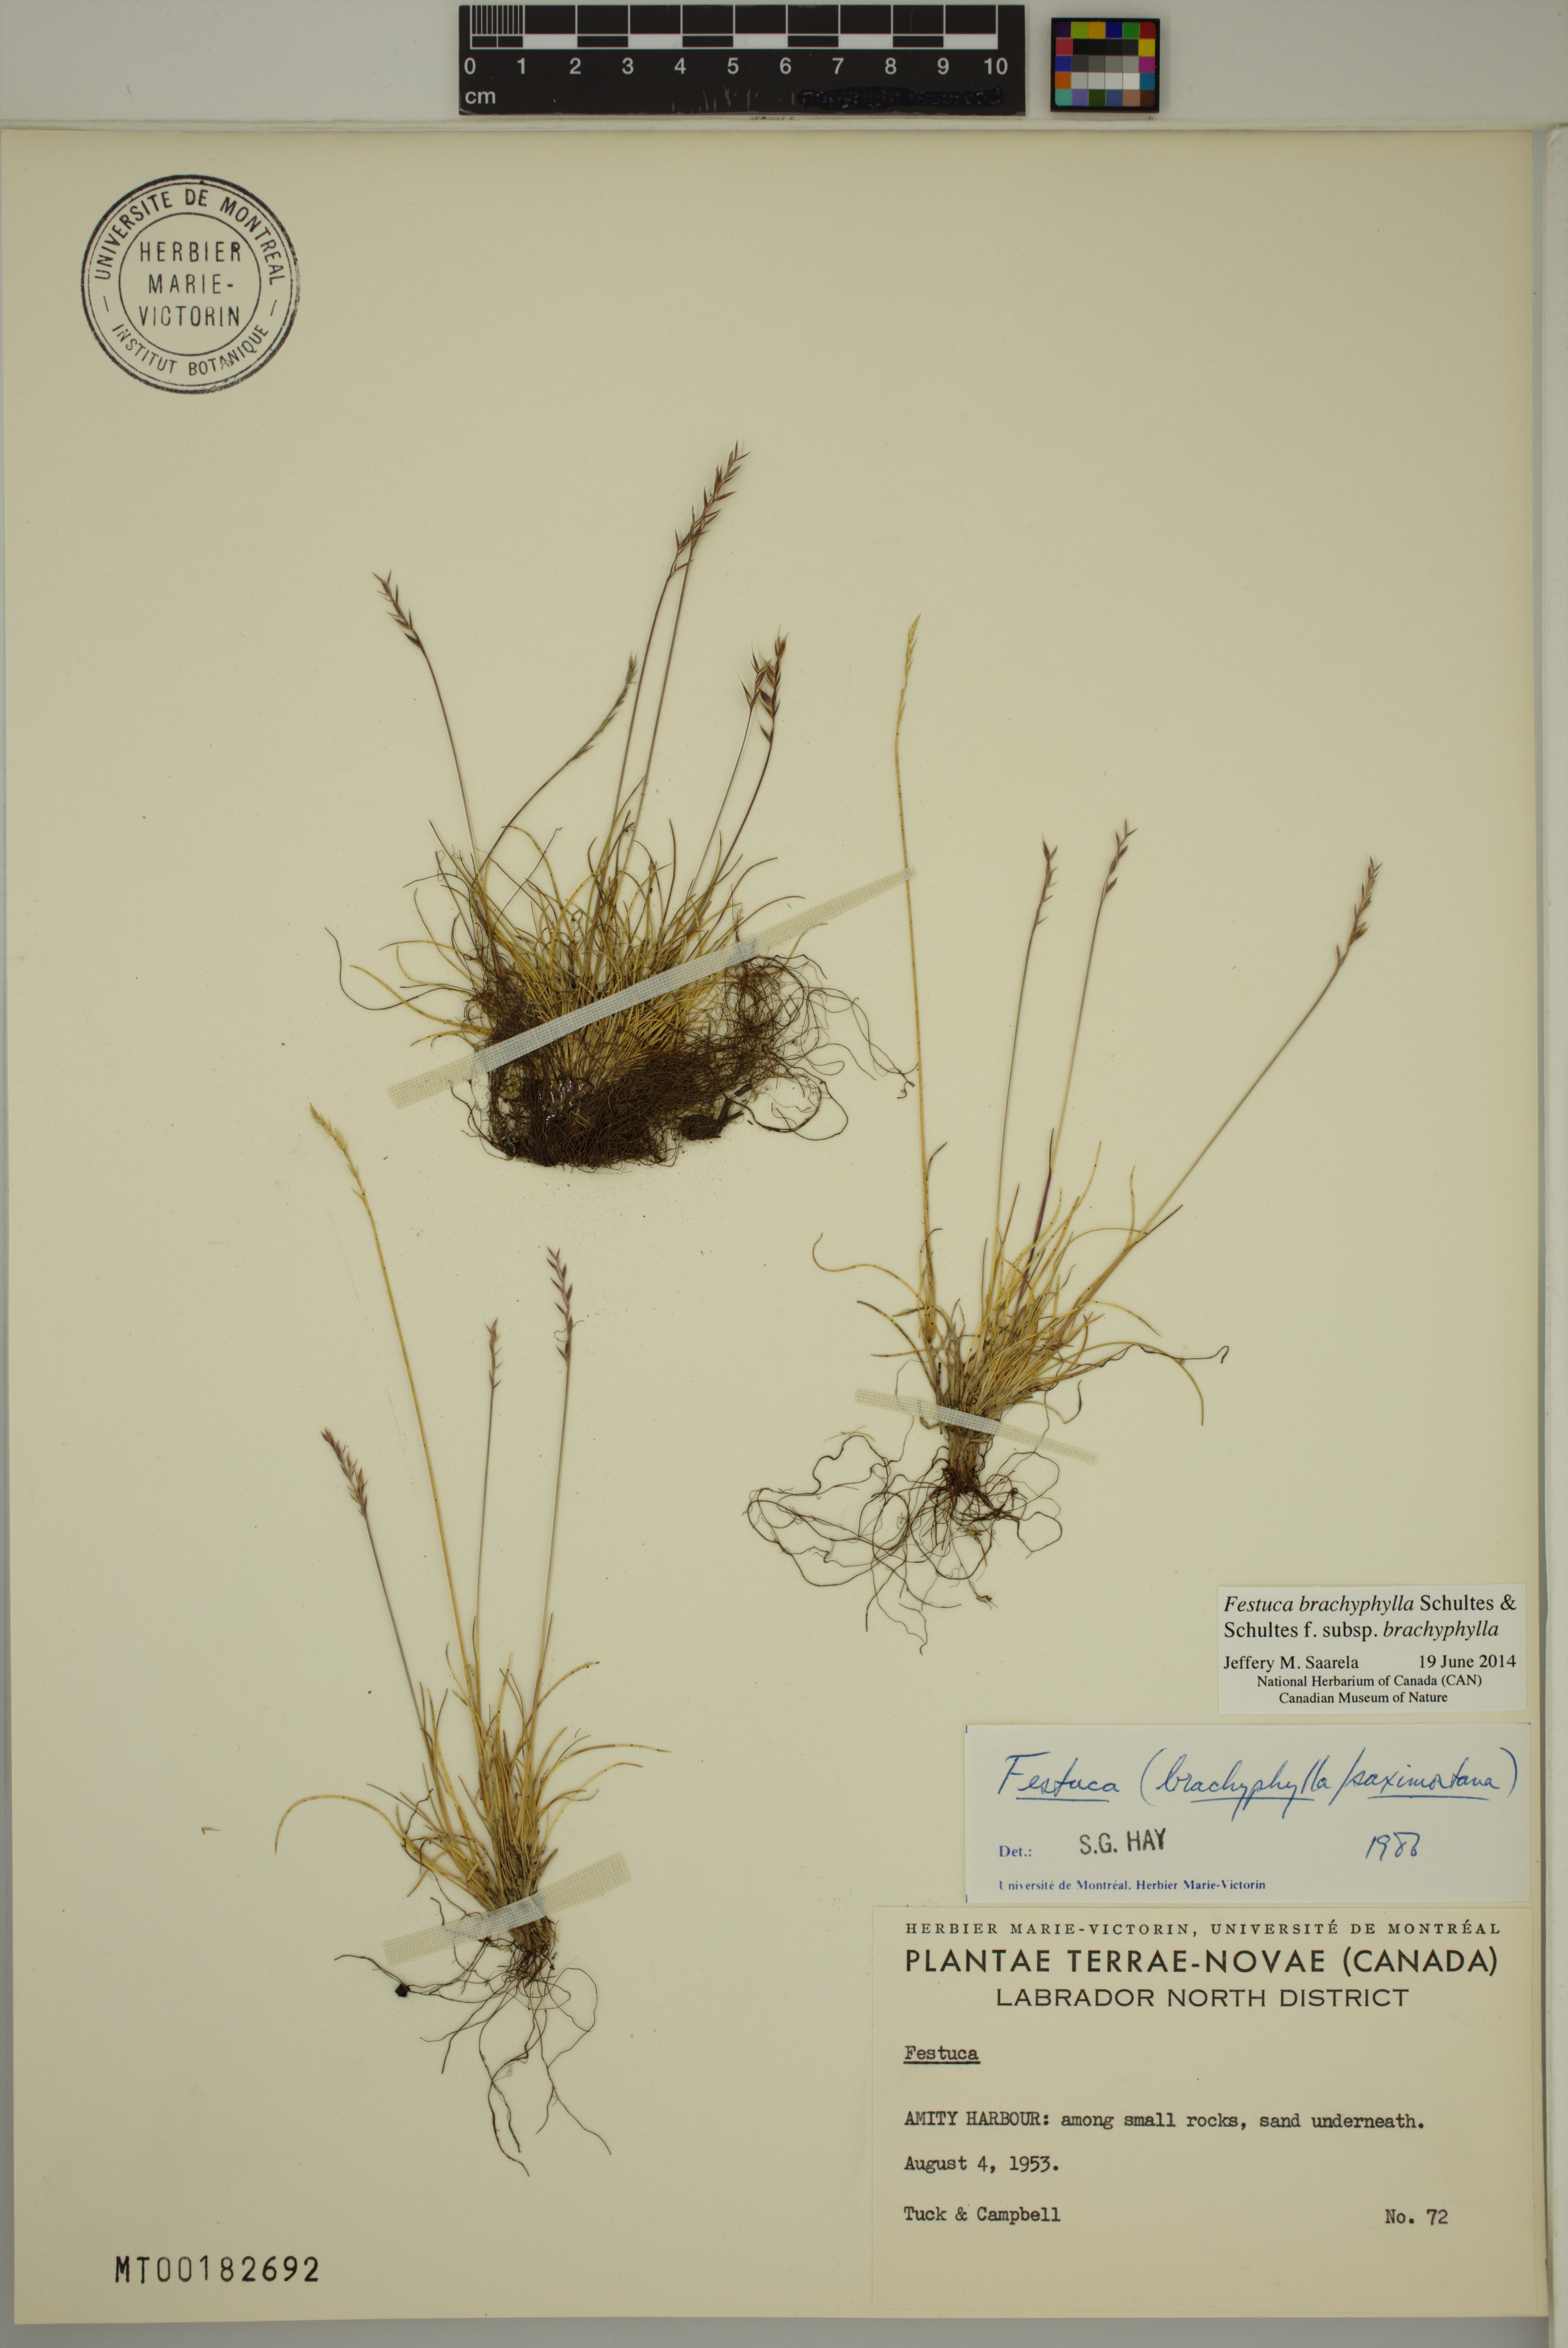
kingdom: Plantae
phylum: Tracheophyta
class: Liliopsida
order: Poales
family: Poaceae
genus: Festuca
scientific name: Festuca brachyphylla
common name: Alpine fescue
